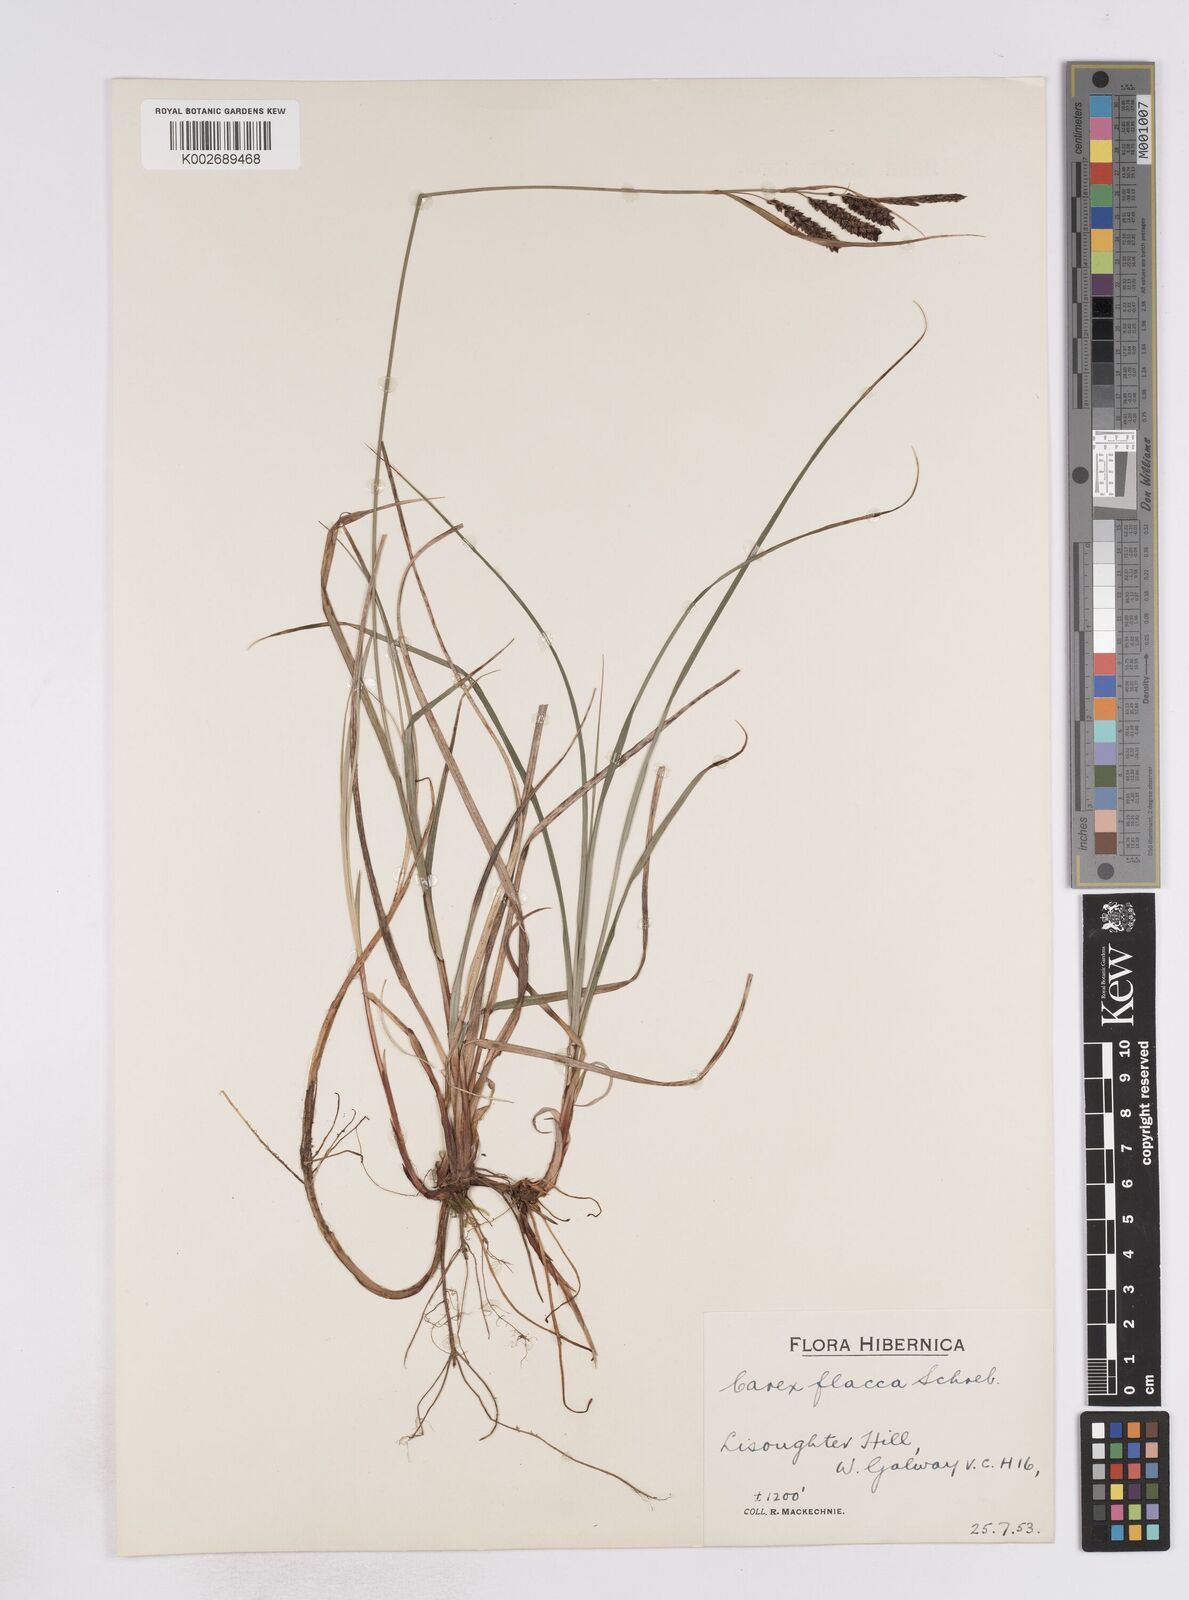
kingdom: Plantae
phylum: Tracheophyta
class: Liliopsida
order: Poales
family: Cyperaceae
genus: Carex
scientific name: Carex flacca
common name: Glaucous sedge
